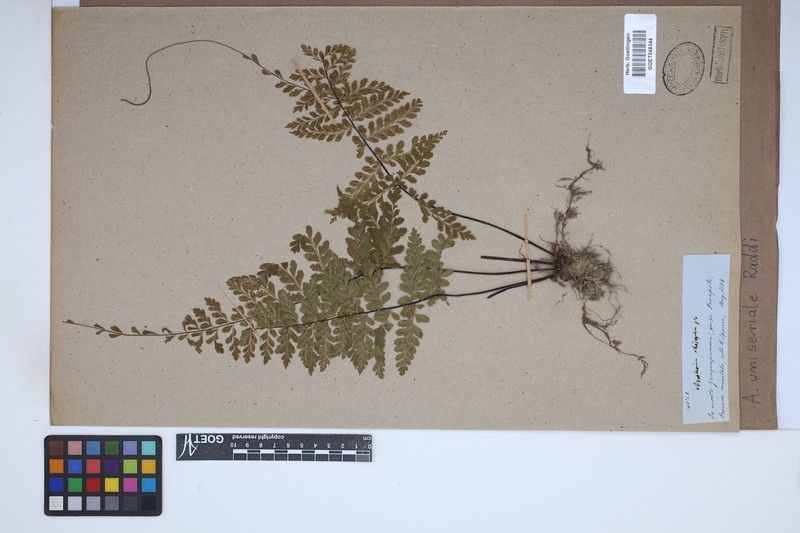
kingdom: Plantae
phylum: Tracheophyta
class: Polypodiopsida
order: Polypodiales
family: Aspleniaceae
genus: Asplenium
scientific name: Asplenium uniseriale
